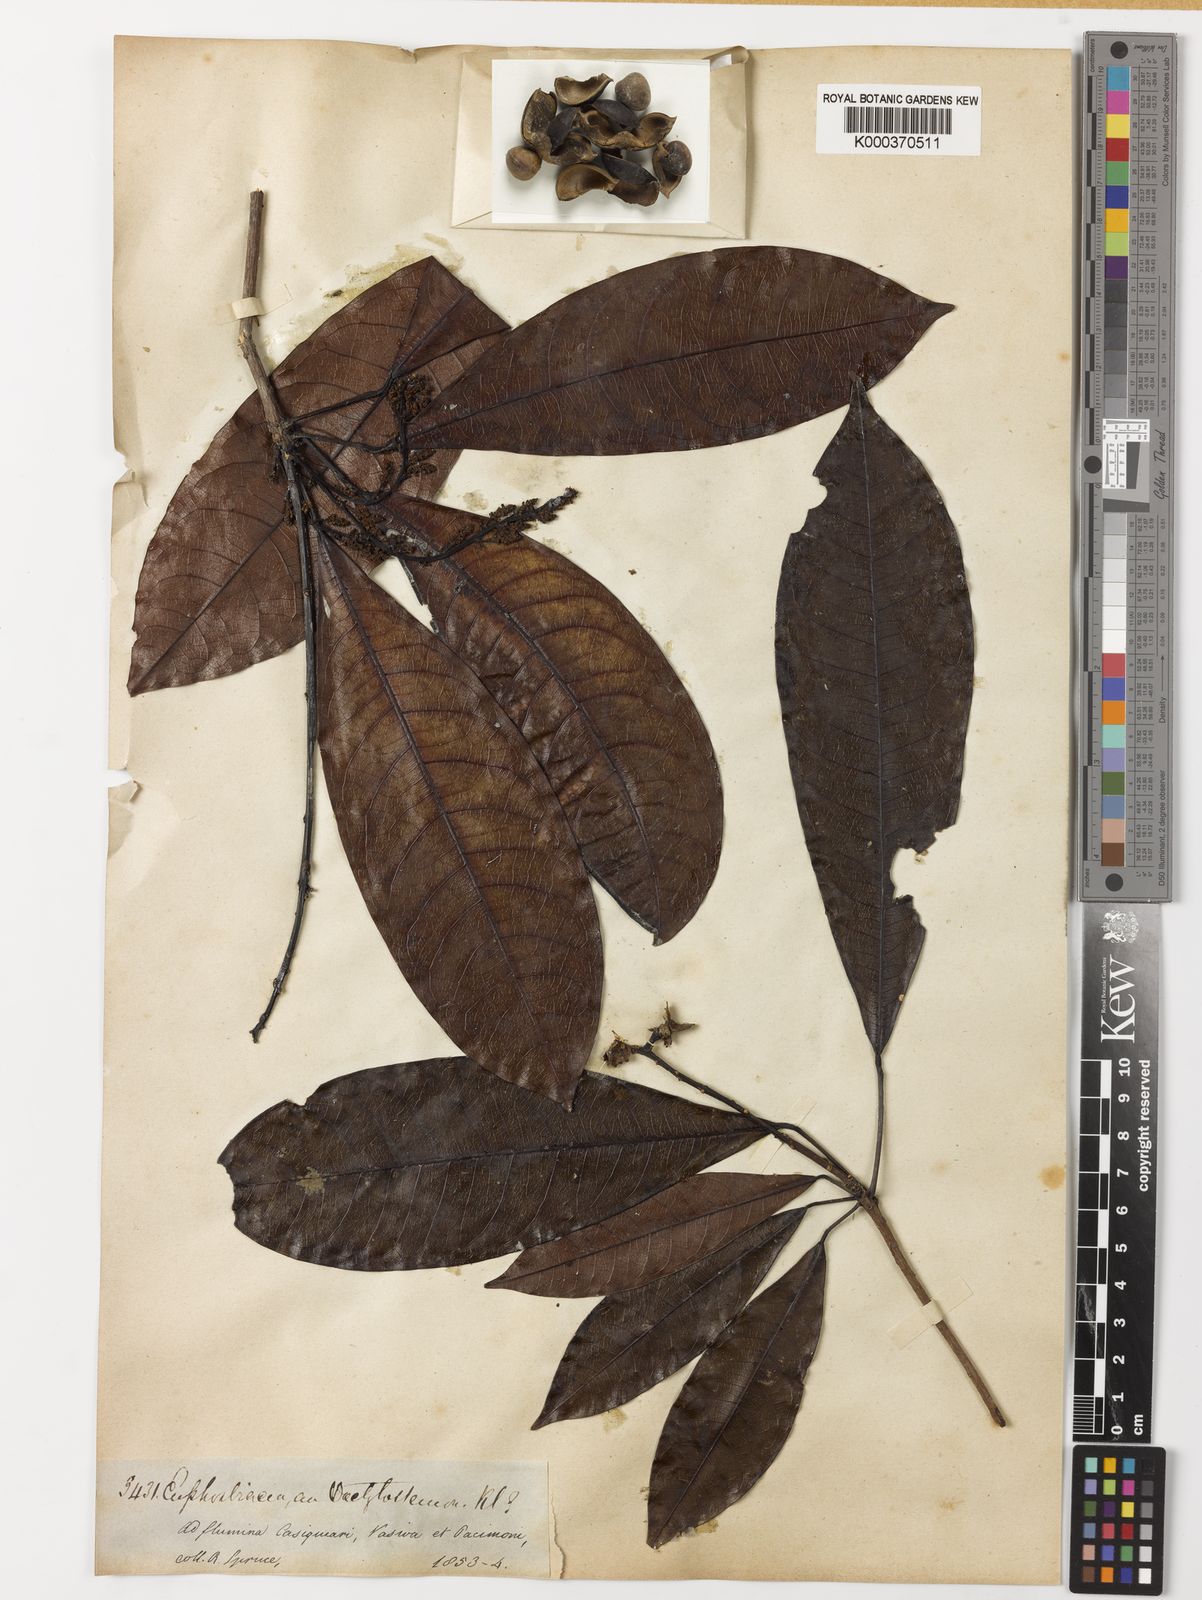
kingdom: Plantae
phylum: Tracheophyta
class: Magnoliopsida
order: Malpighiales
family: Euphorbiaceae
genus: Pseudosenefeldera
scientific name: Pseudosenefeldera
